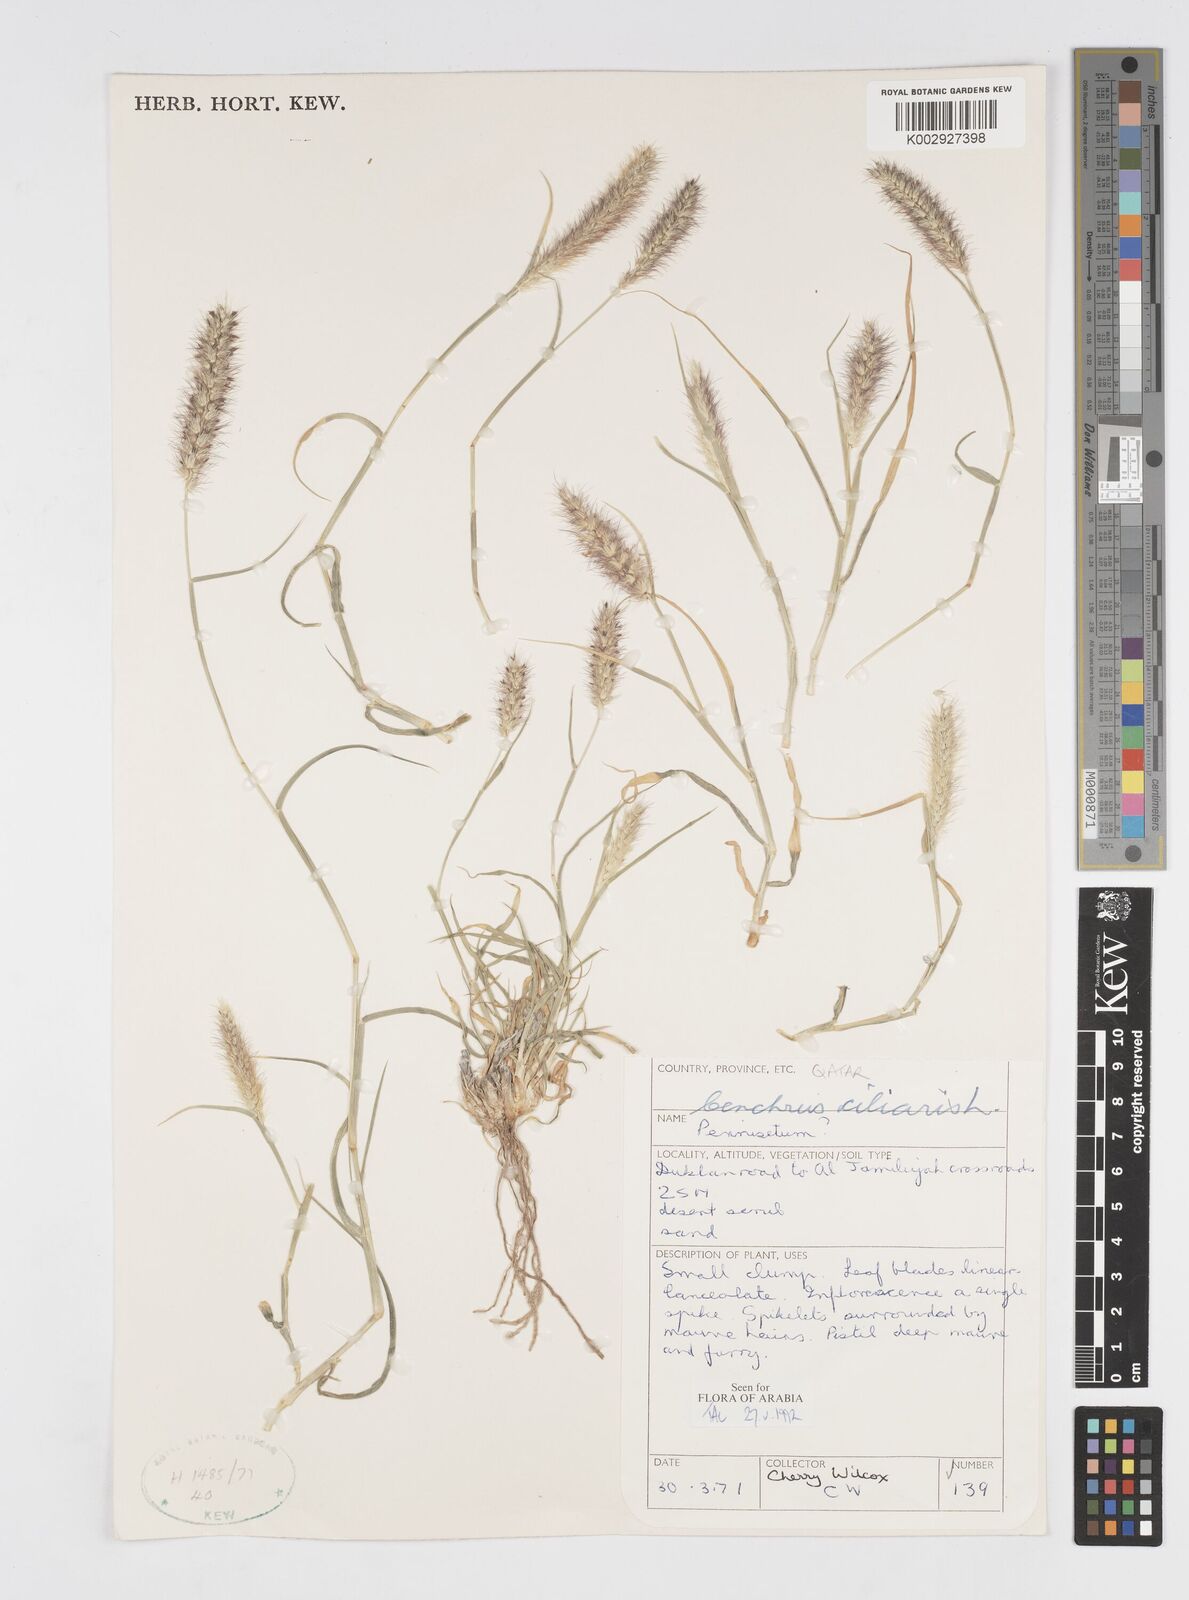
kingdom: Plantae
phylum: Tracheophyta
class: Liliopsida
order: Poales
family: Poaceae
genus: Cenchrus
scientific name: Cenchrus ciliaris
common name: Buffelgrass
